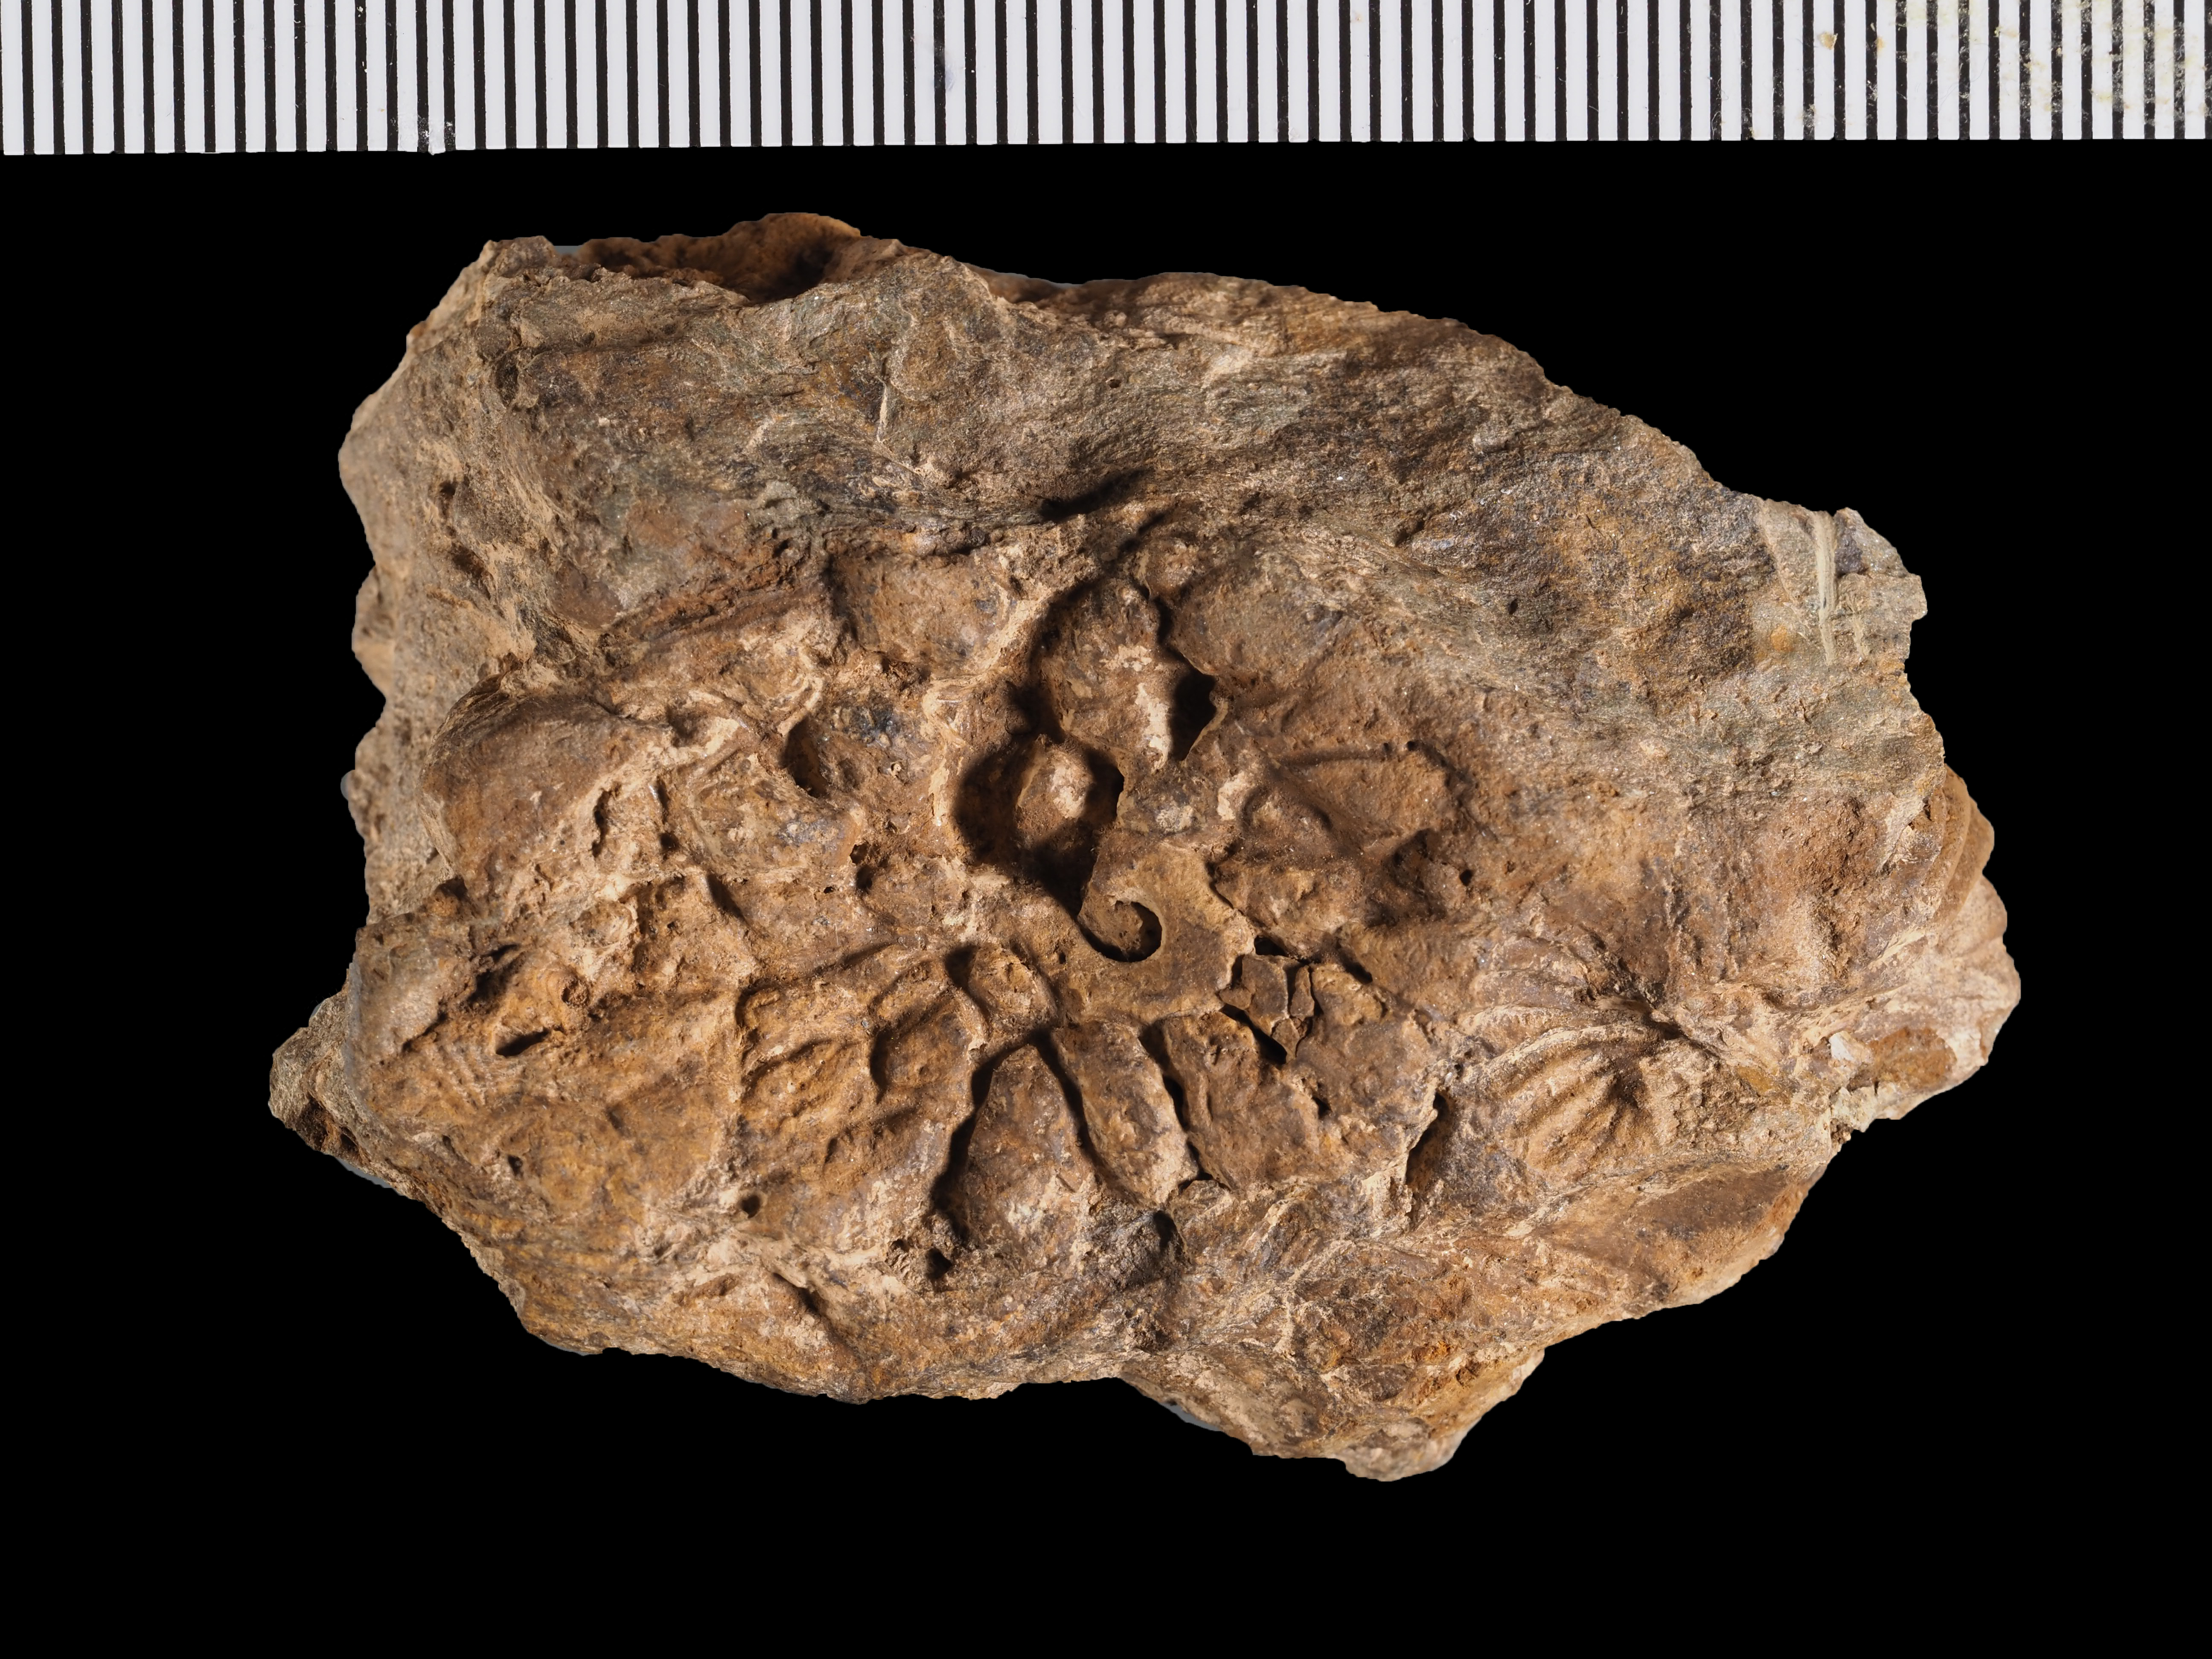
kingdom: Animalia
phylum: Cnidaria
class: Anthozoa
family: Micheliniidae
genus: Pleurodictyum
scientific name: Pleurodictyum
